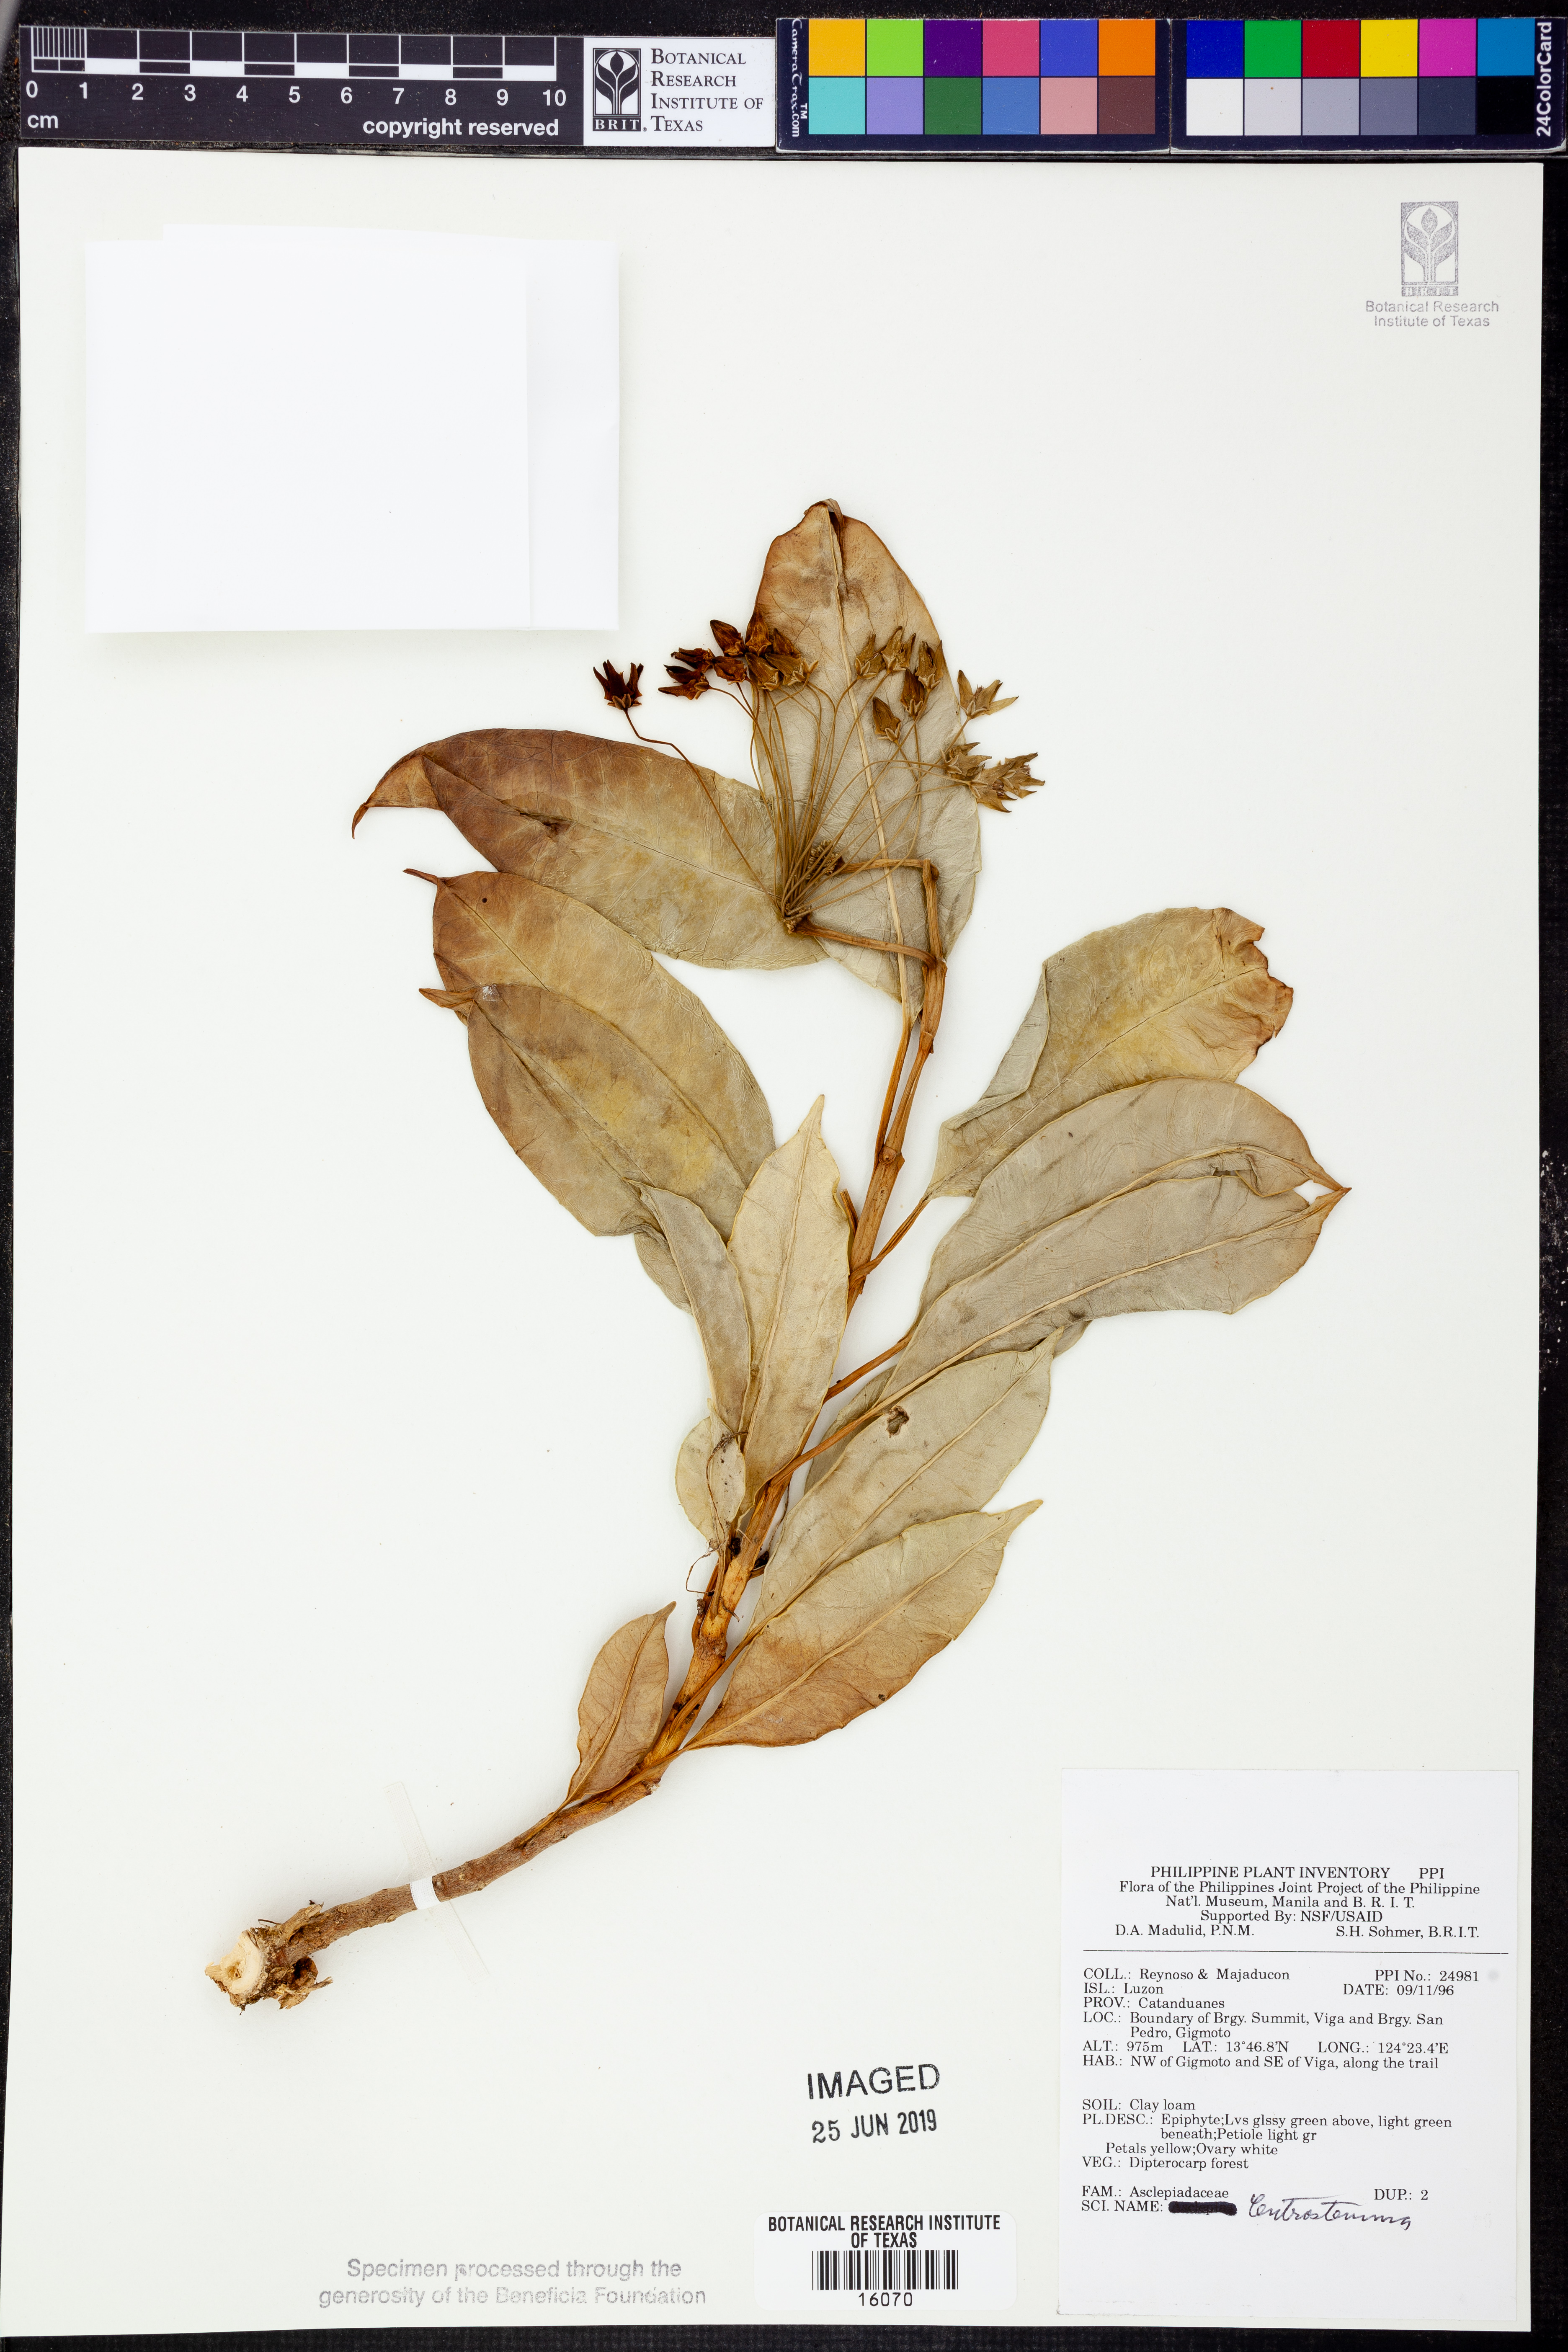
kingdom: Plantae
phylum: Tracheophyta
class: Magnoliopsida
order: Gentianales
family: Apocynaceae
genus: Hoya
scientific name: Hoya
